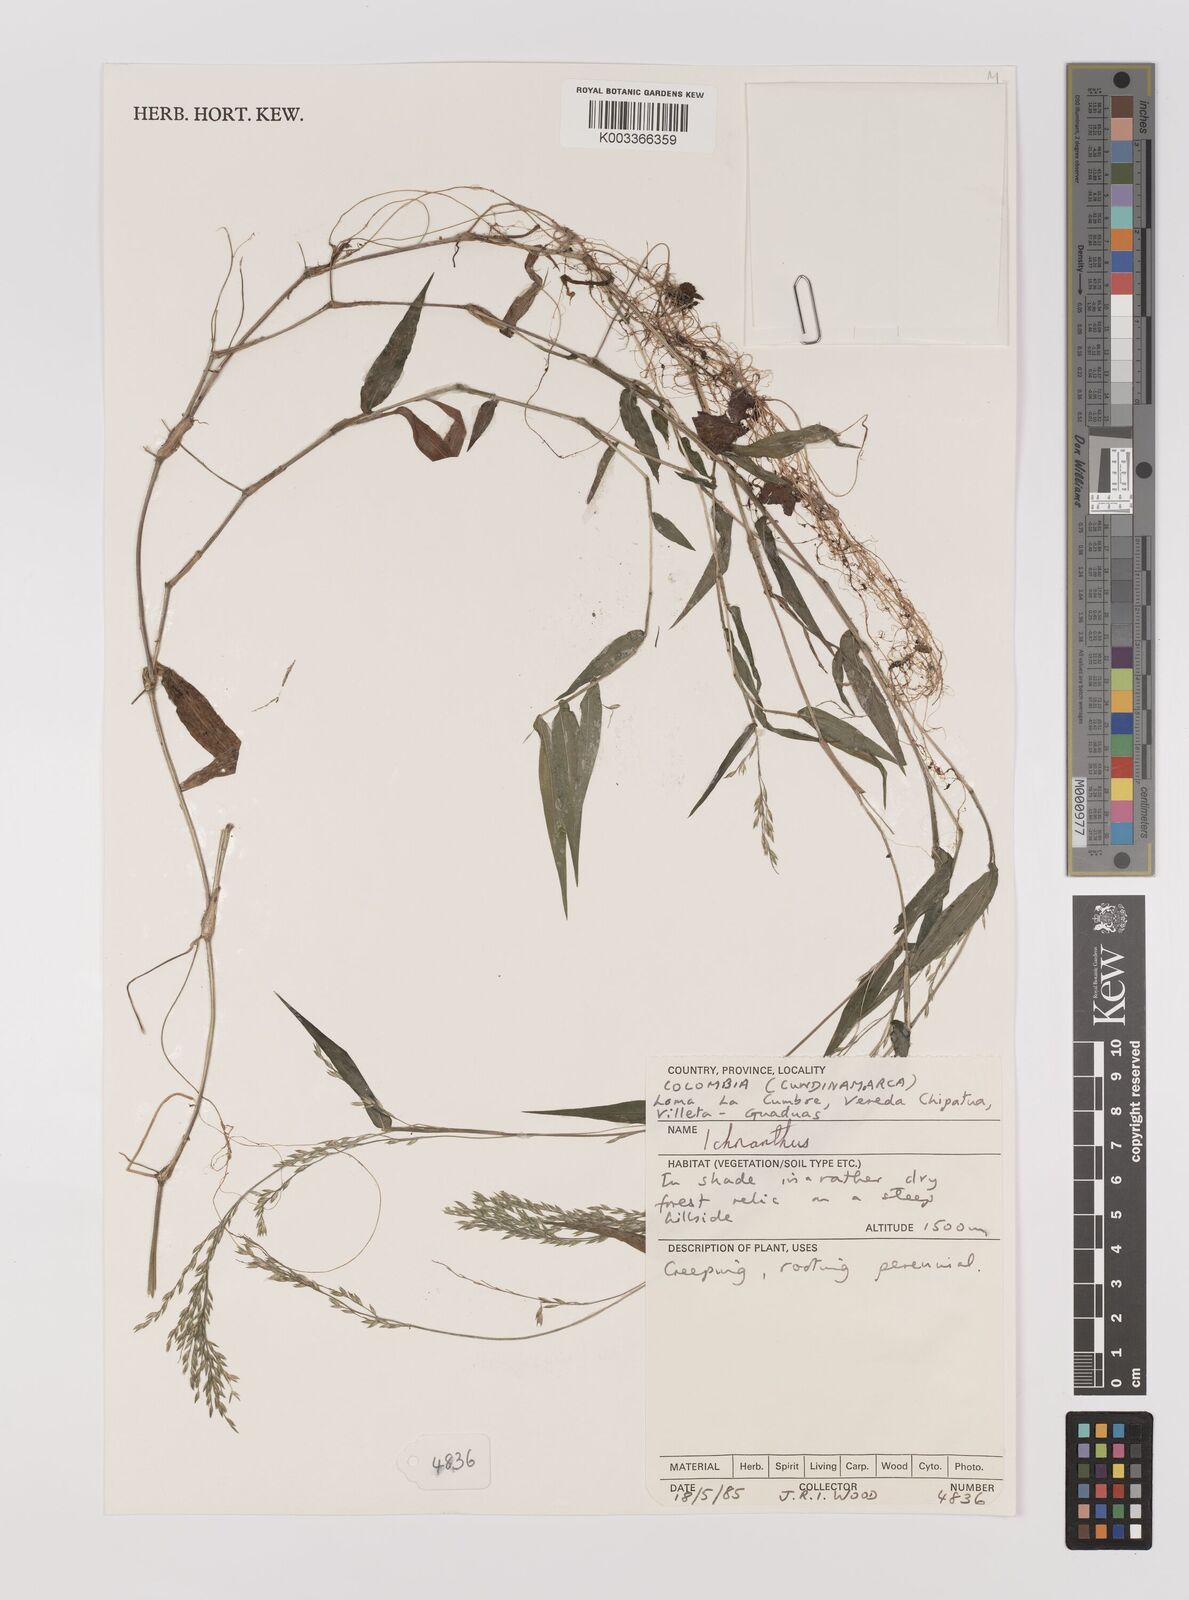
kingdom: Plantae
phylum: Tracheophyta
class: Liliopsida
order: Poales
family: Poaceae
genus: Ichnanthus
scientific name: Ichnanthus tenuis
